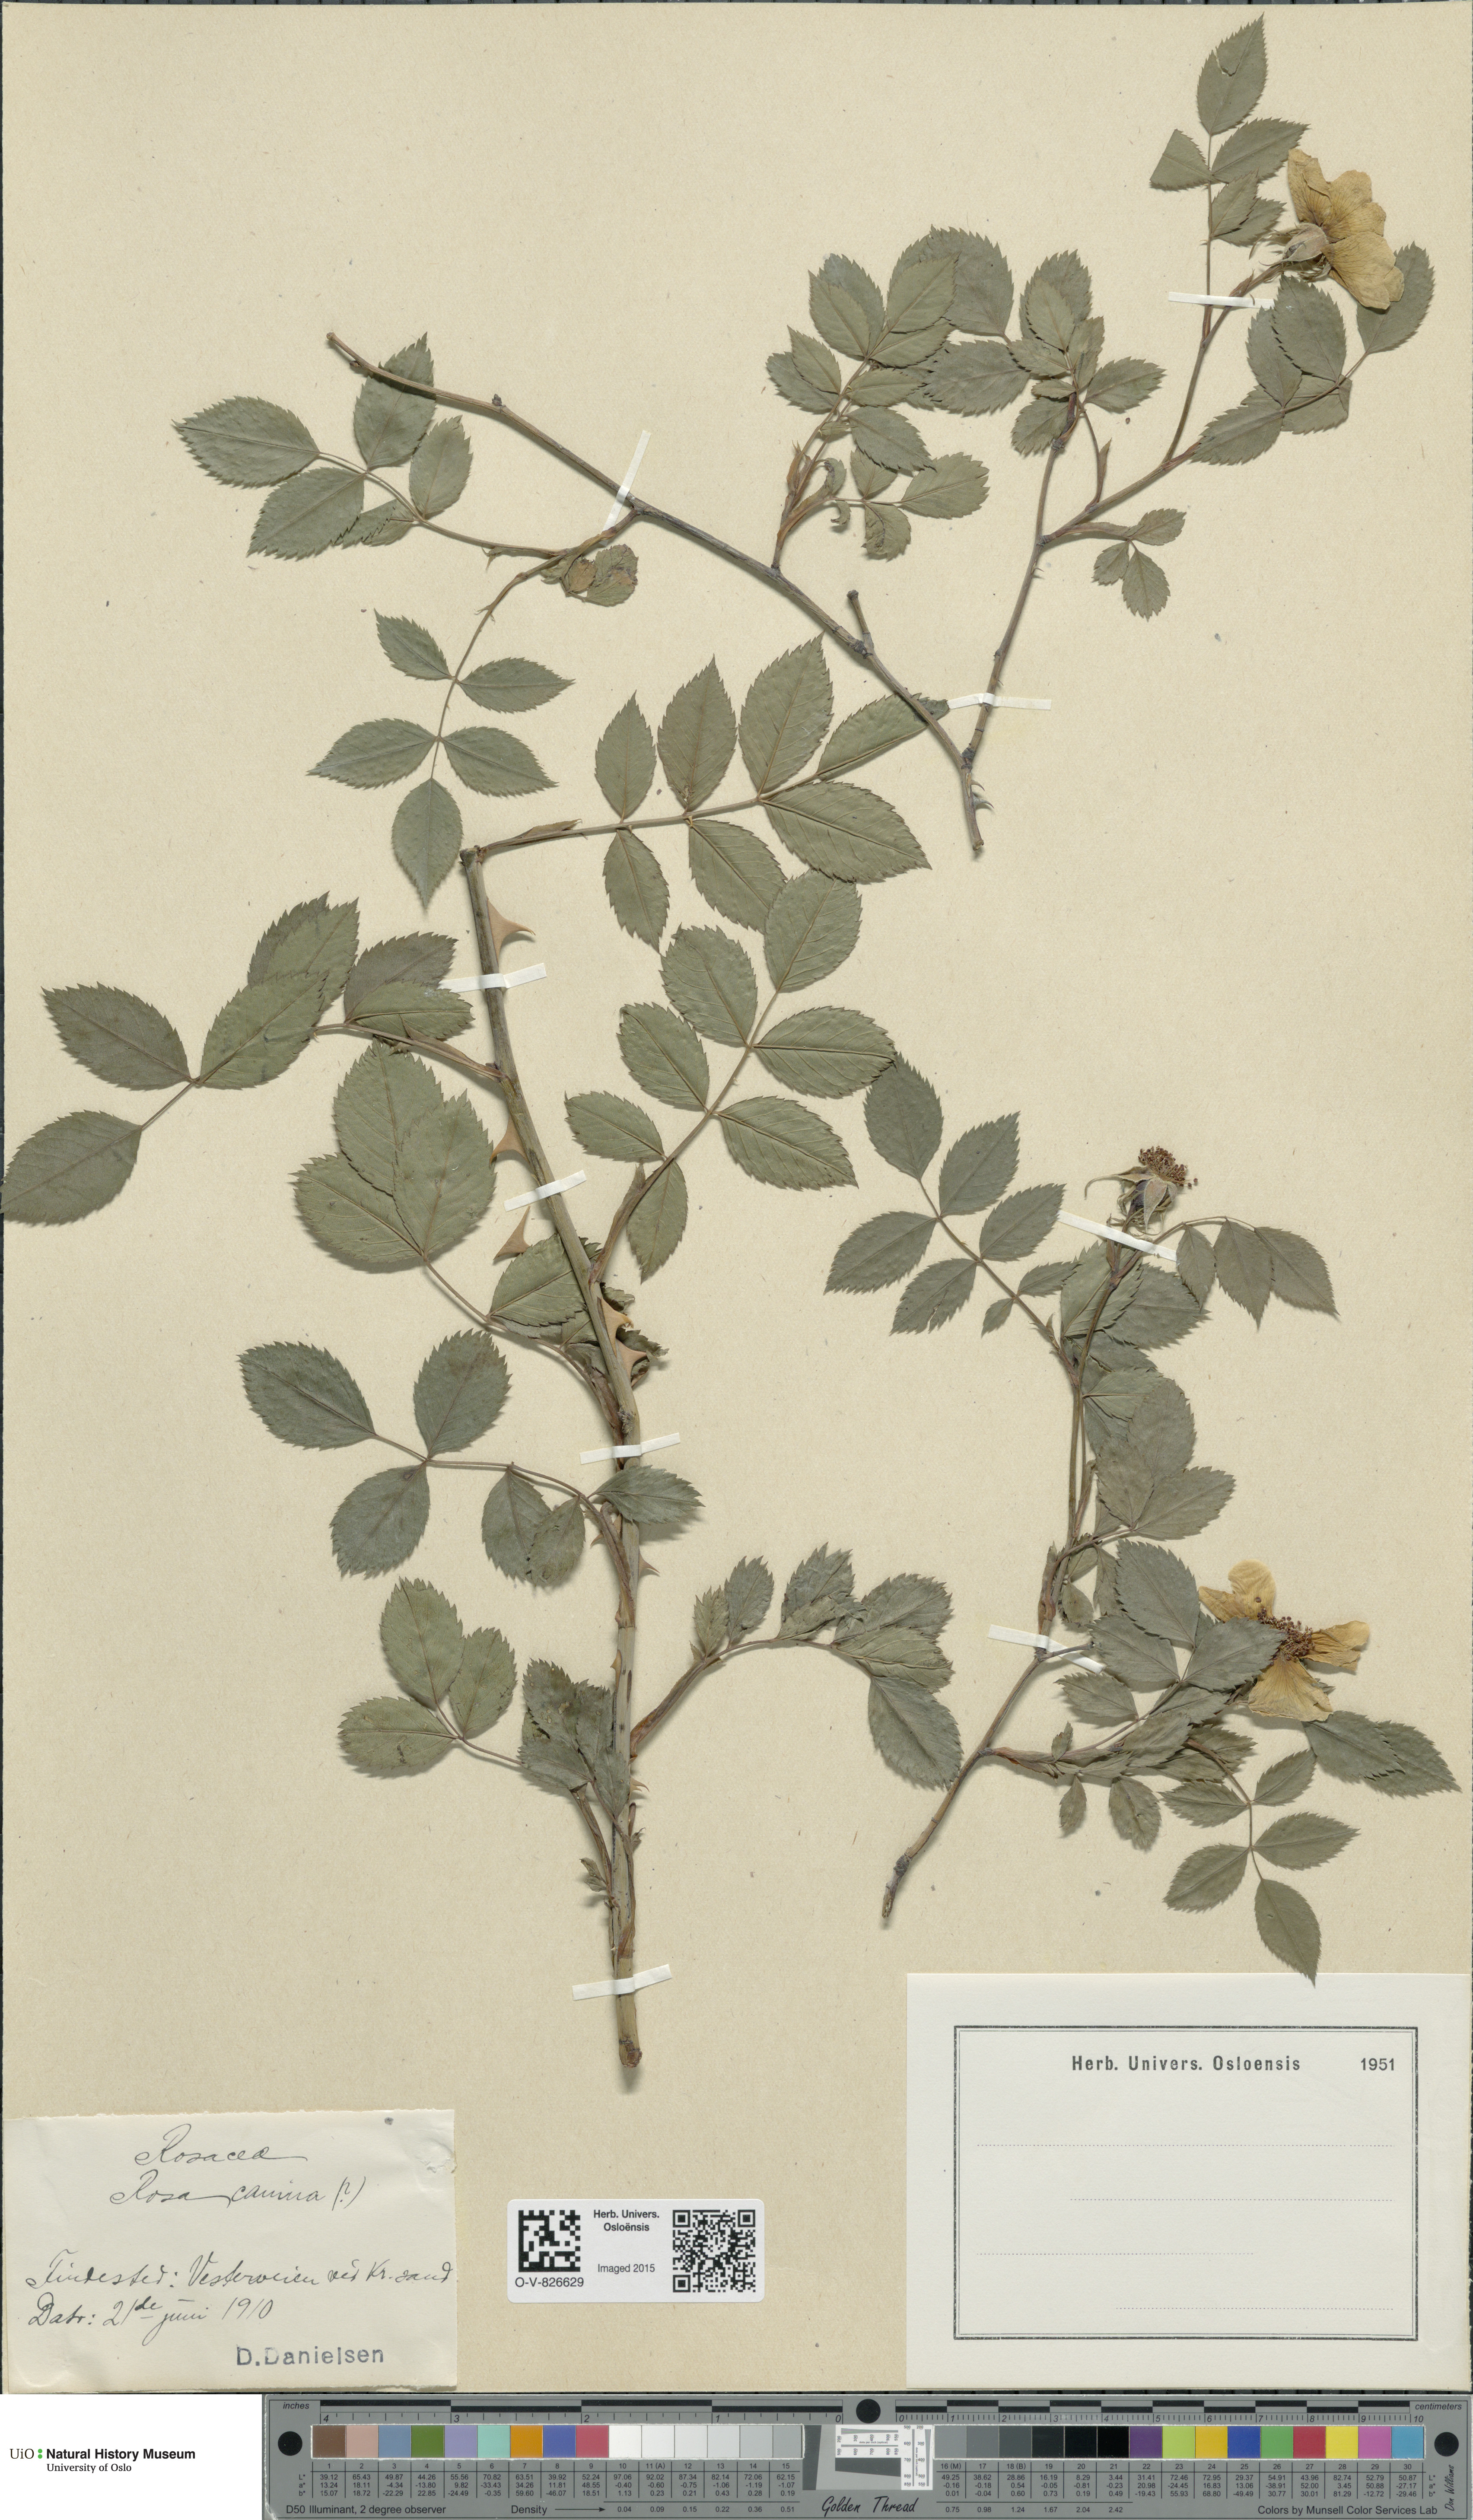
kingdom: Plantae
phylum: Tracheophyta
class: Magnoliopsida
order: Rosales
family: Rosaceae
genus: Rosa
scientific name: Rosa canina
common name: Dog rose
